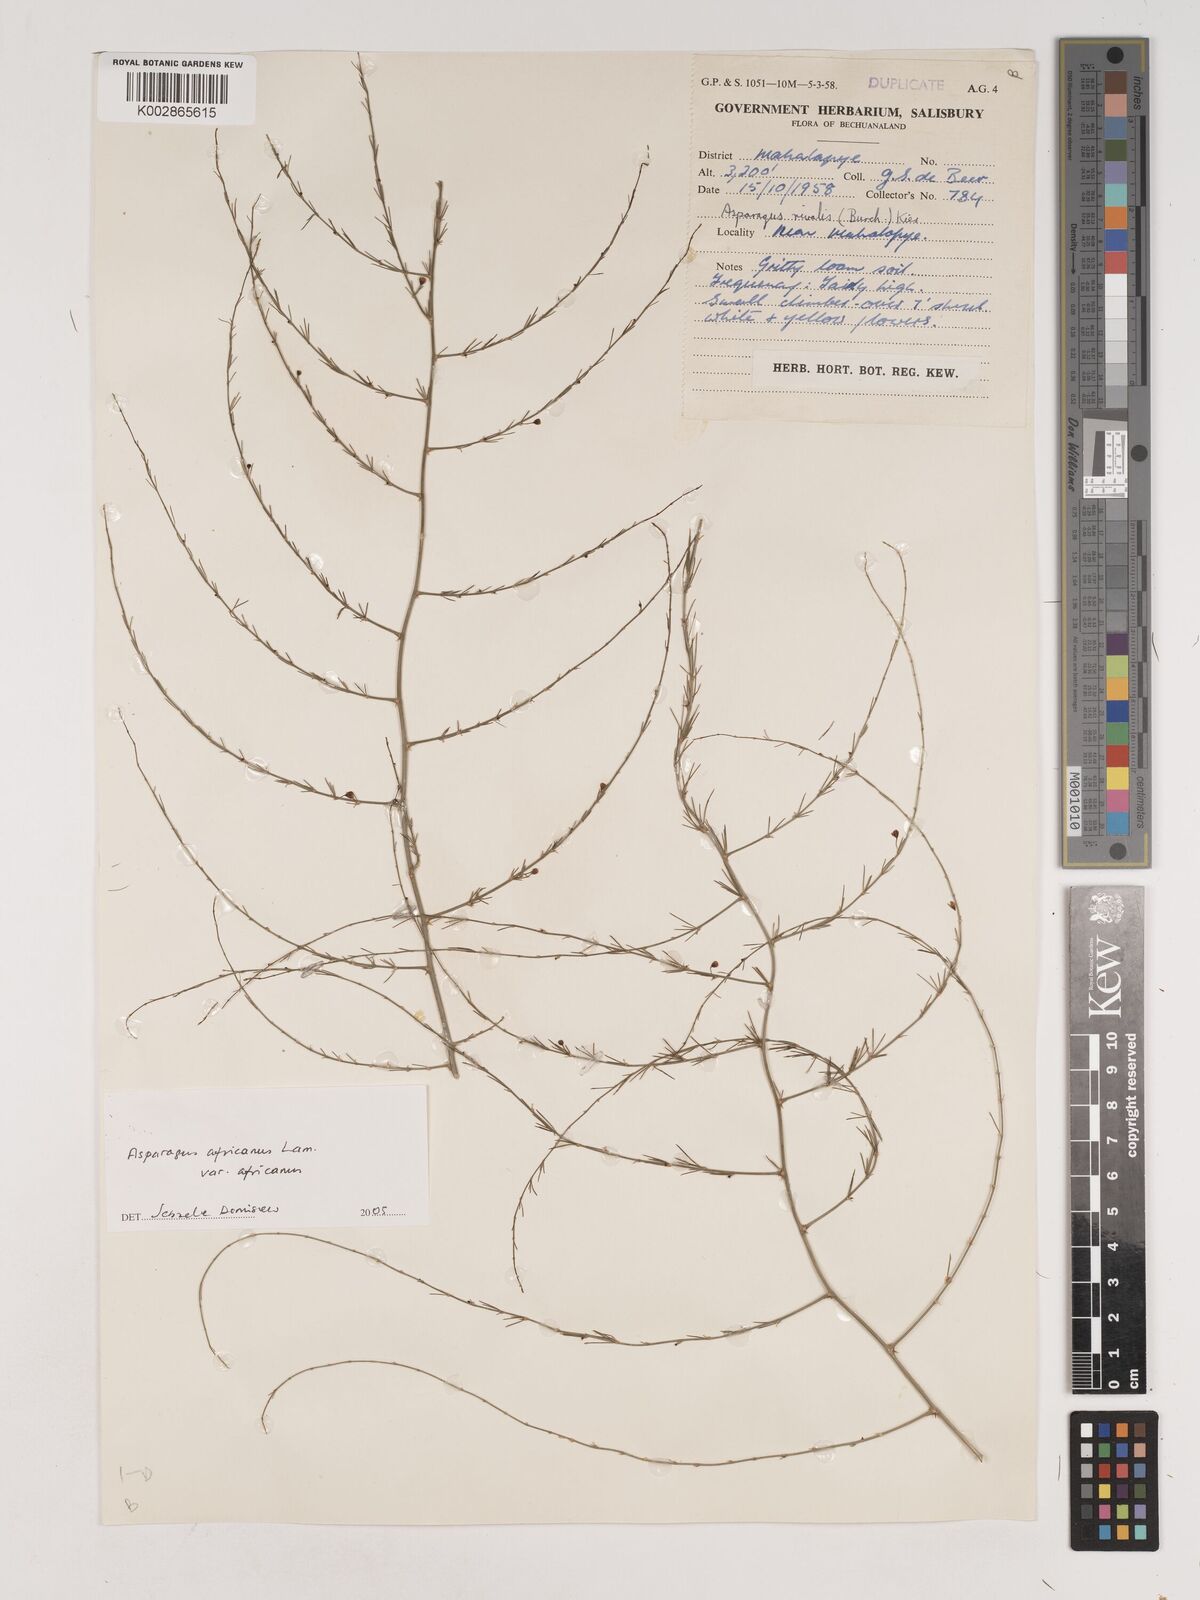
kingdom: Plantae
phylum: Tracheophyta
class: Liliopsida
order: Asparagales
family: Asparagaceae
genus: Asparagus
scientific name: Asparagus africanus
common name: Asparagus-fern
